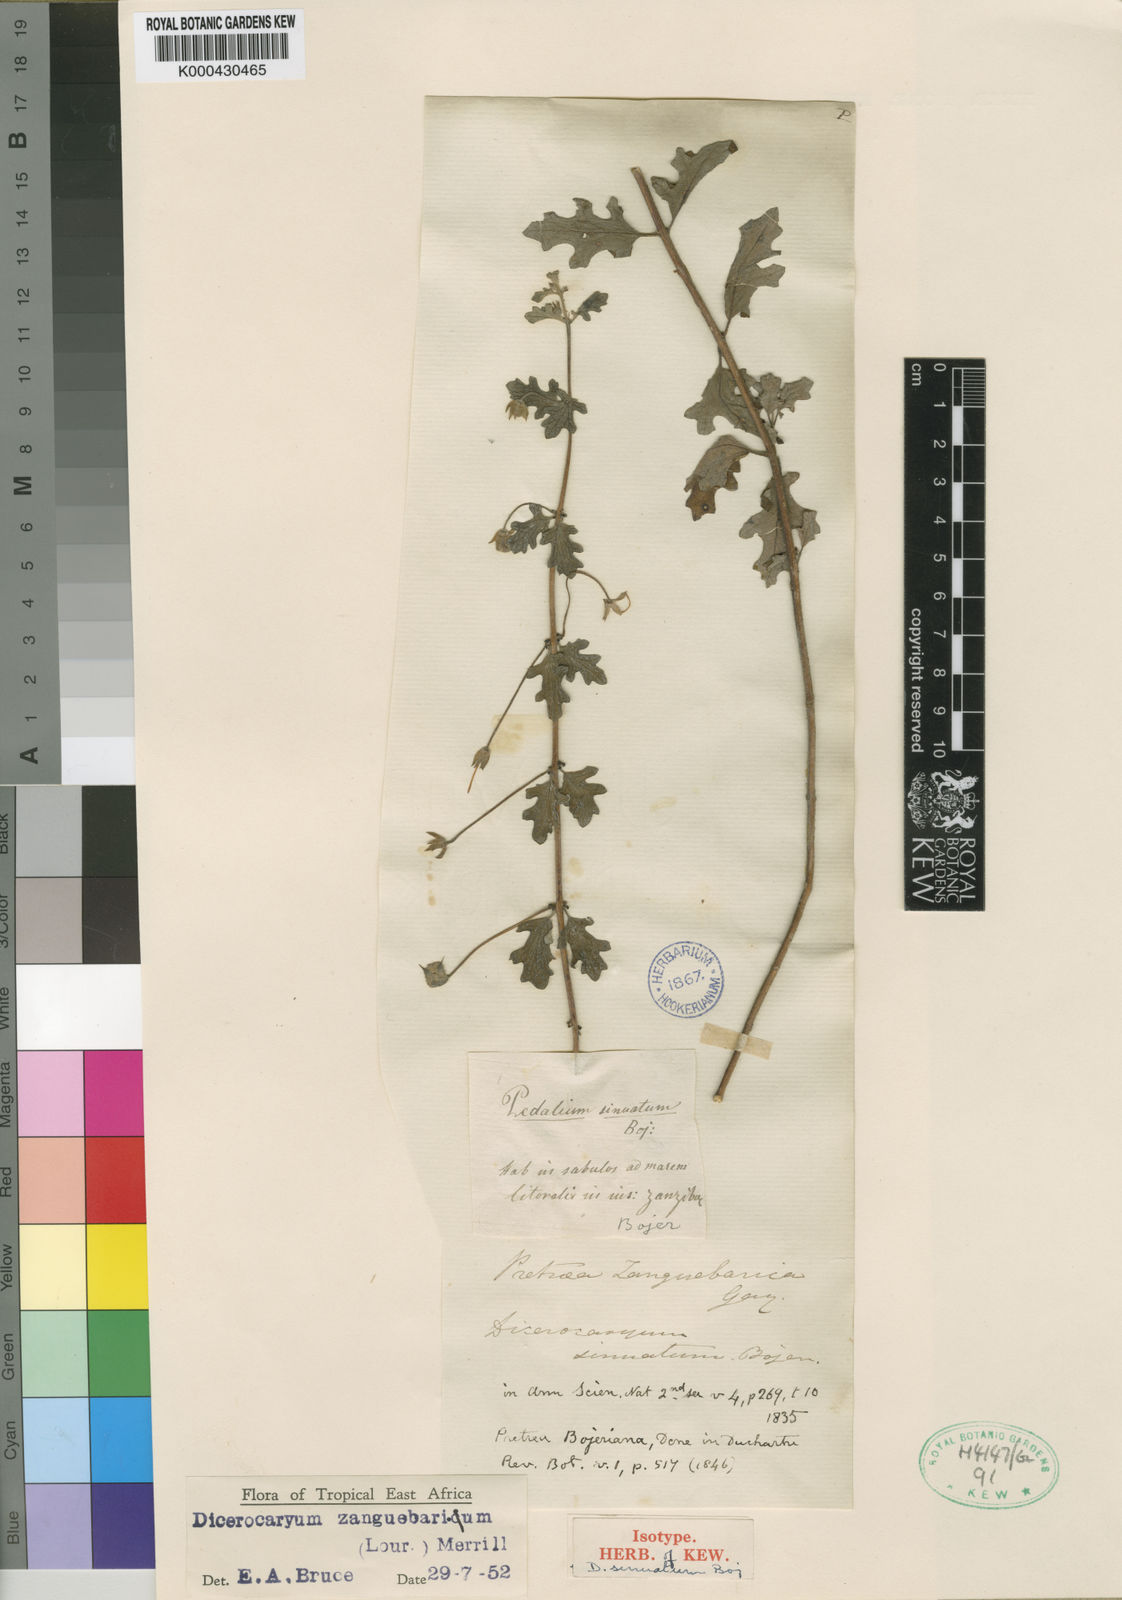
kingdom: Plantae
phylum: Tracheophyta
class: Magnoliopsida
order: Lamiales
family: Pedaliaceae
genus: Dicerocaryum
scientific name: Dicerocaryum zanguebarium
